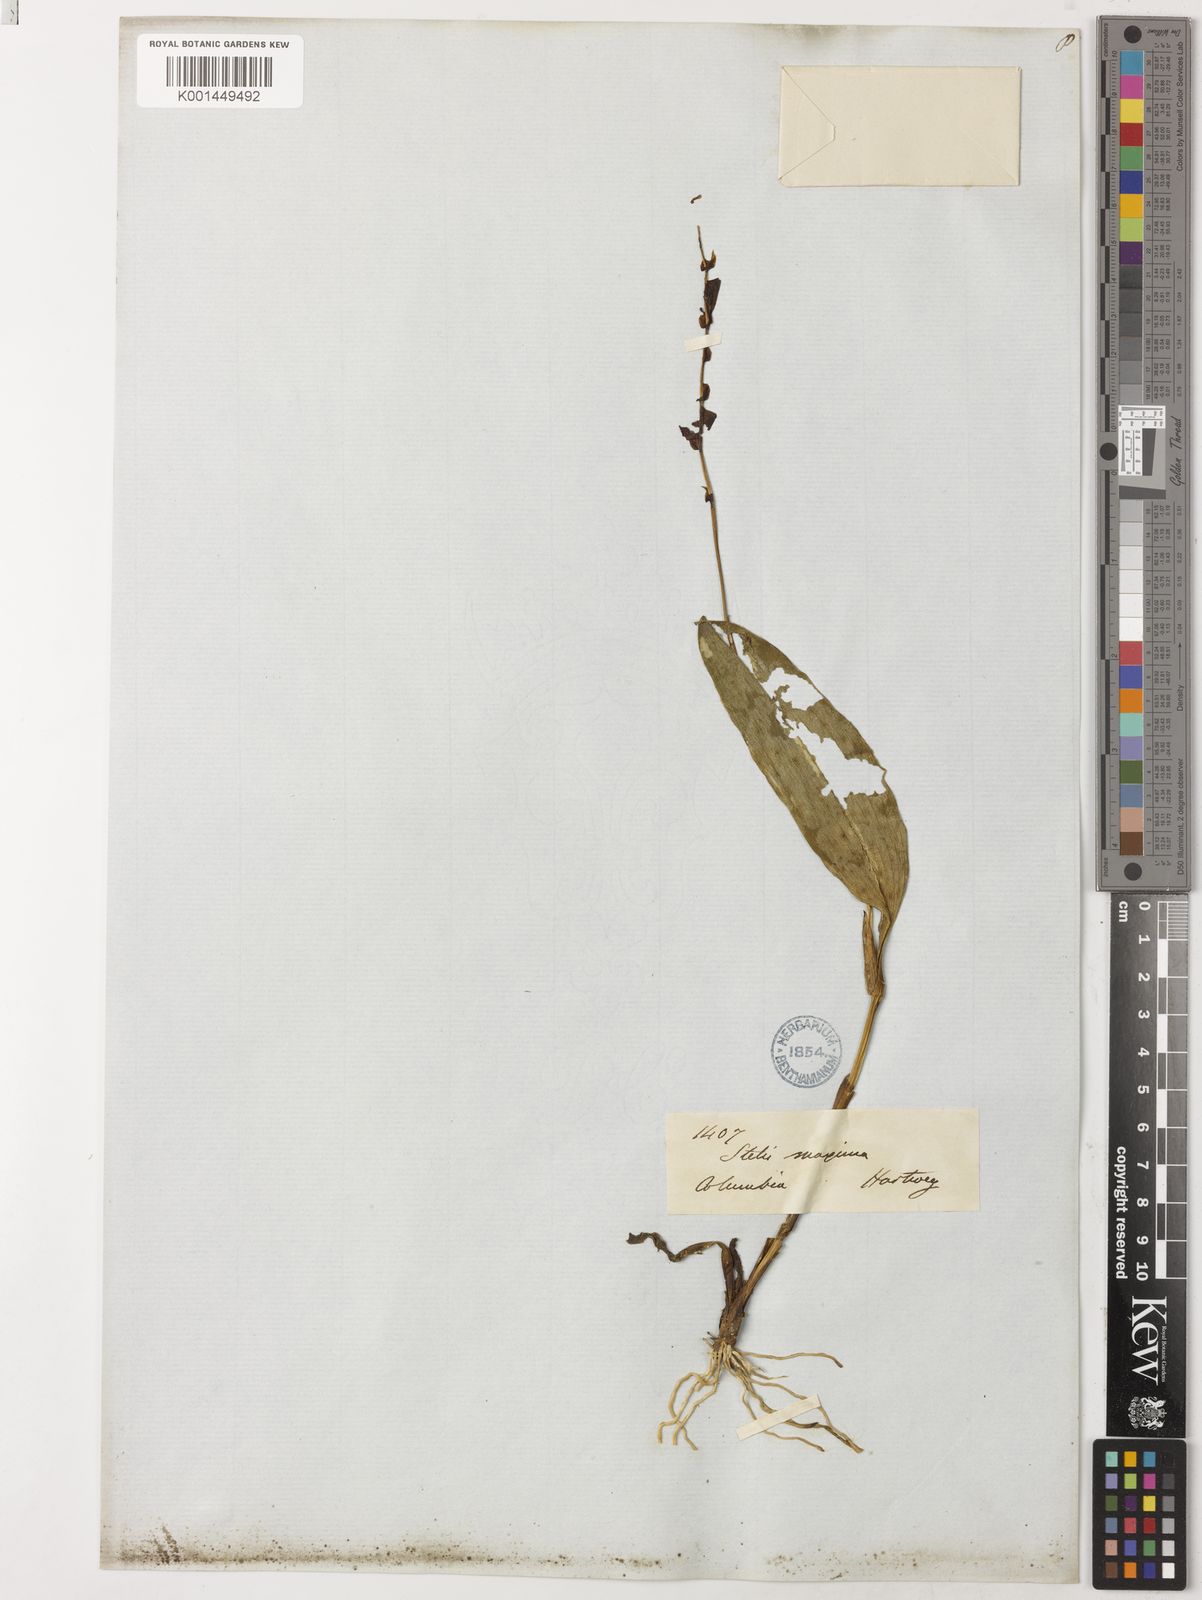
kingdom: Plantae
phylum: Tracheophyta
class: Liliopsida
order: Asparagales
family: Orchidaceae
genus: Stelis
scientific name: Stelis dapsilis
